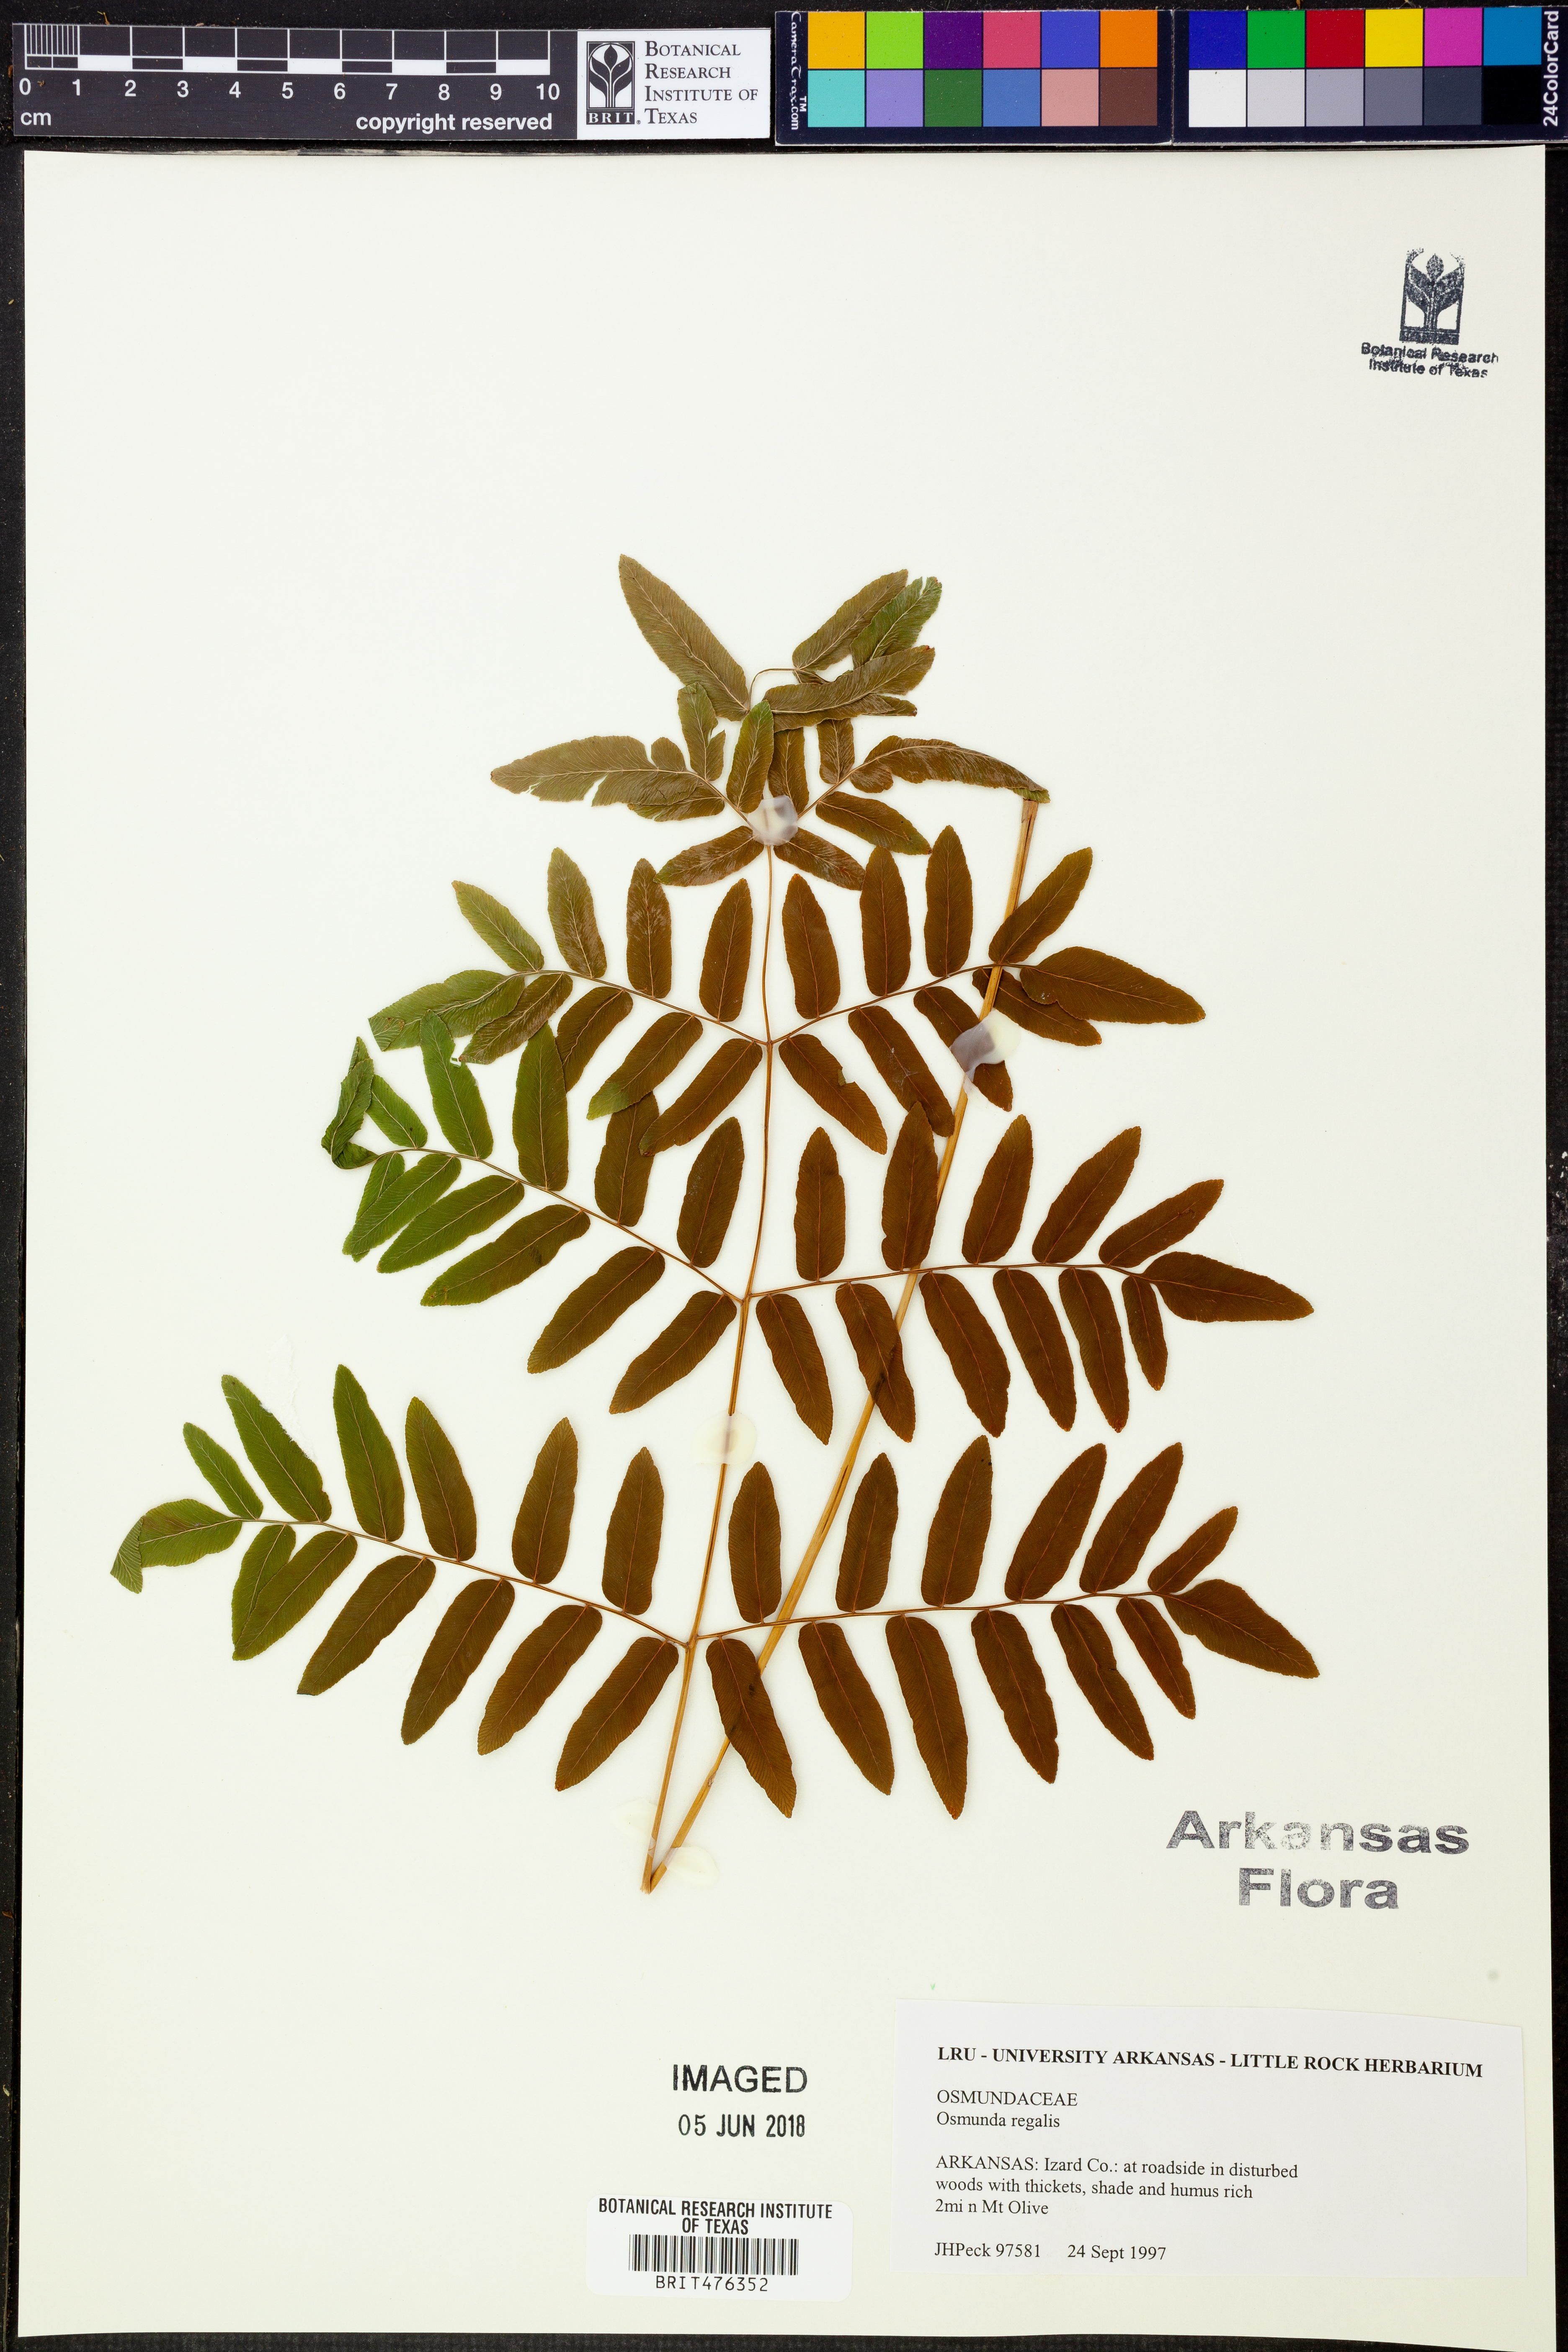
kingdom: Plantae
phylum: Tracheophyta
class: Polypodiopsida
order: Osmundales
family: Osmundaceae
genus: Osmunda
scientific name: Osmunda regalis
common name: Royal fern
